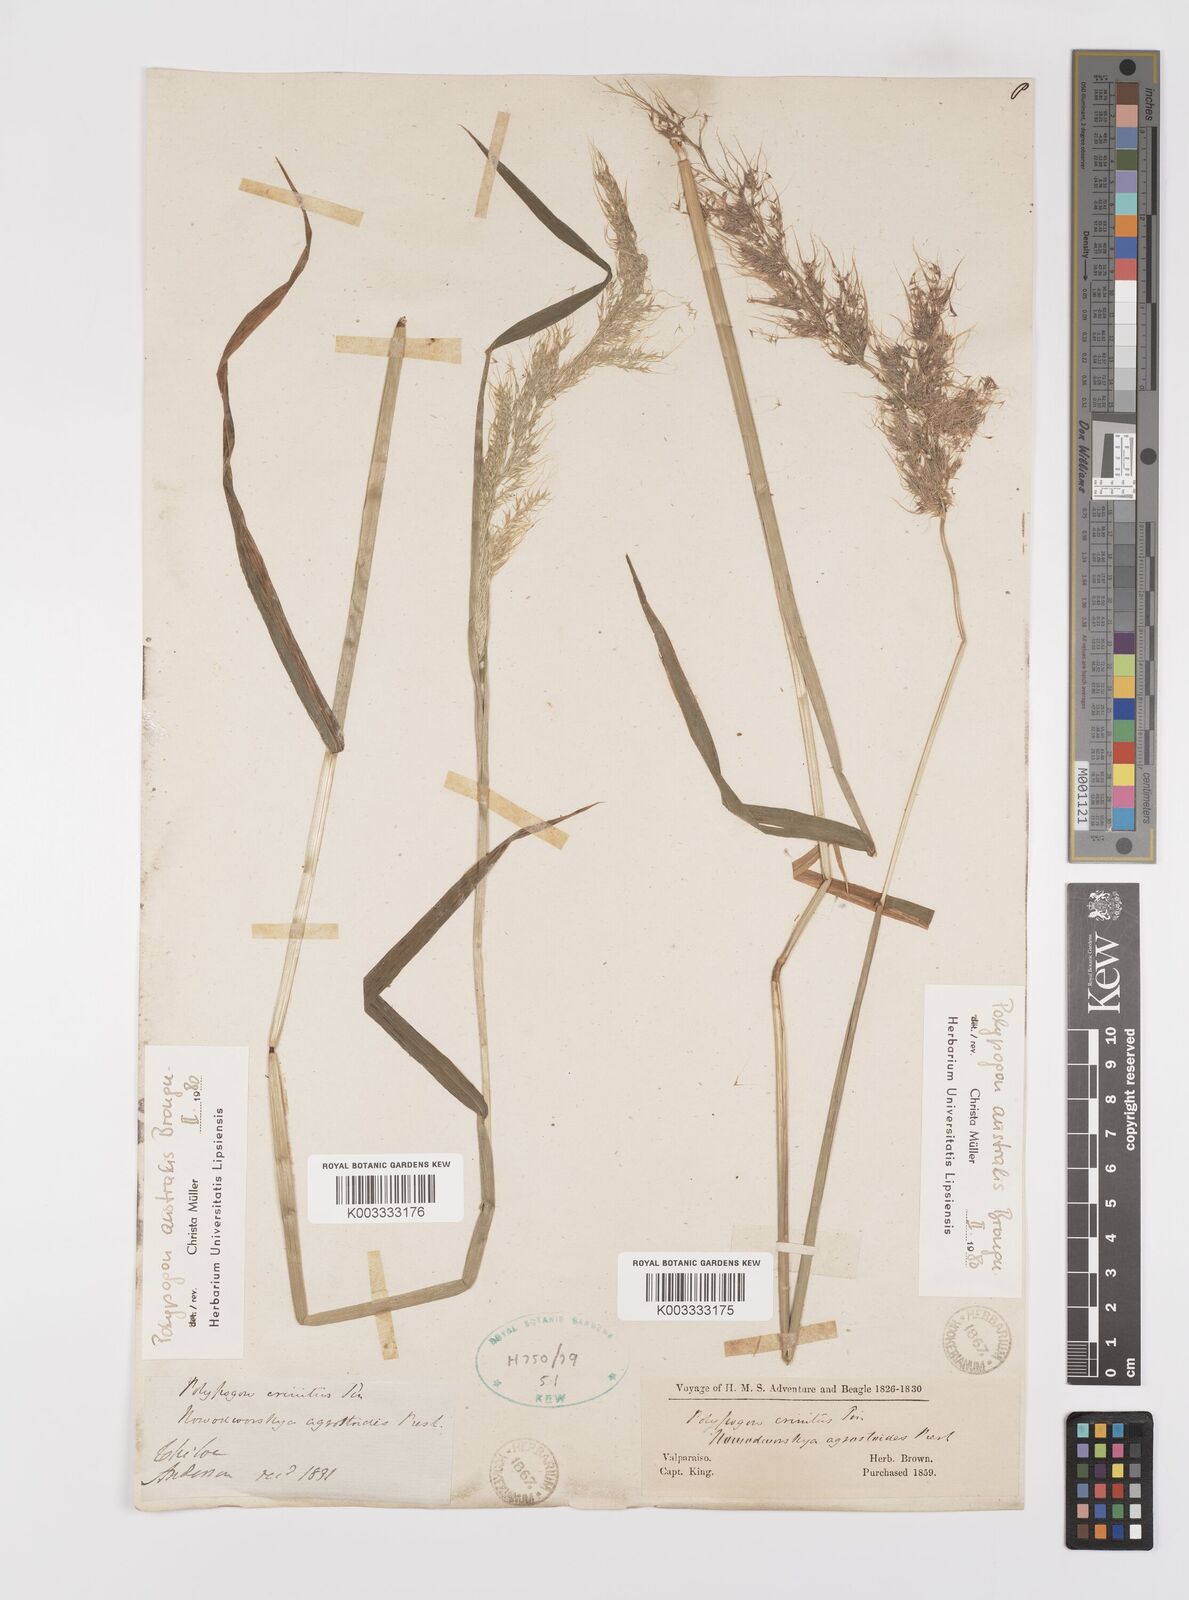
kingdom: Plantae
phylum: Tracheophyta
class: Liliopsida
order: Poales
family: Poaceae
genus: Polypogon
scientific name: Polypogon australis
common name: Chilean rabbitsfoot grass
